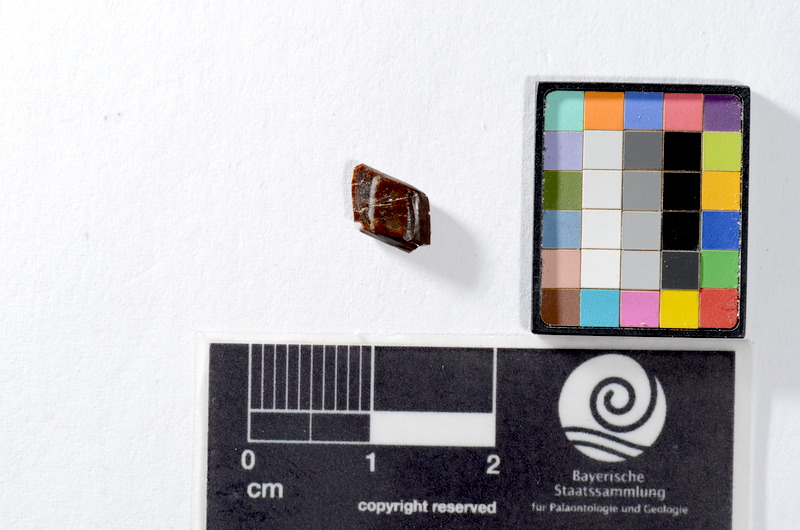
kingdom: Animalia
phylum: Chordata
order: Lepisosteiformes
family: Lepidotidae
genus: Lepidotes
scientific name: Lepidotes
